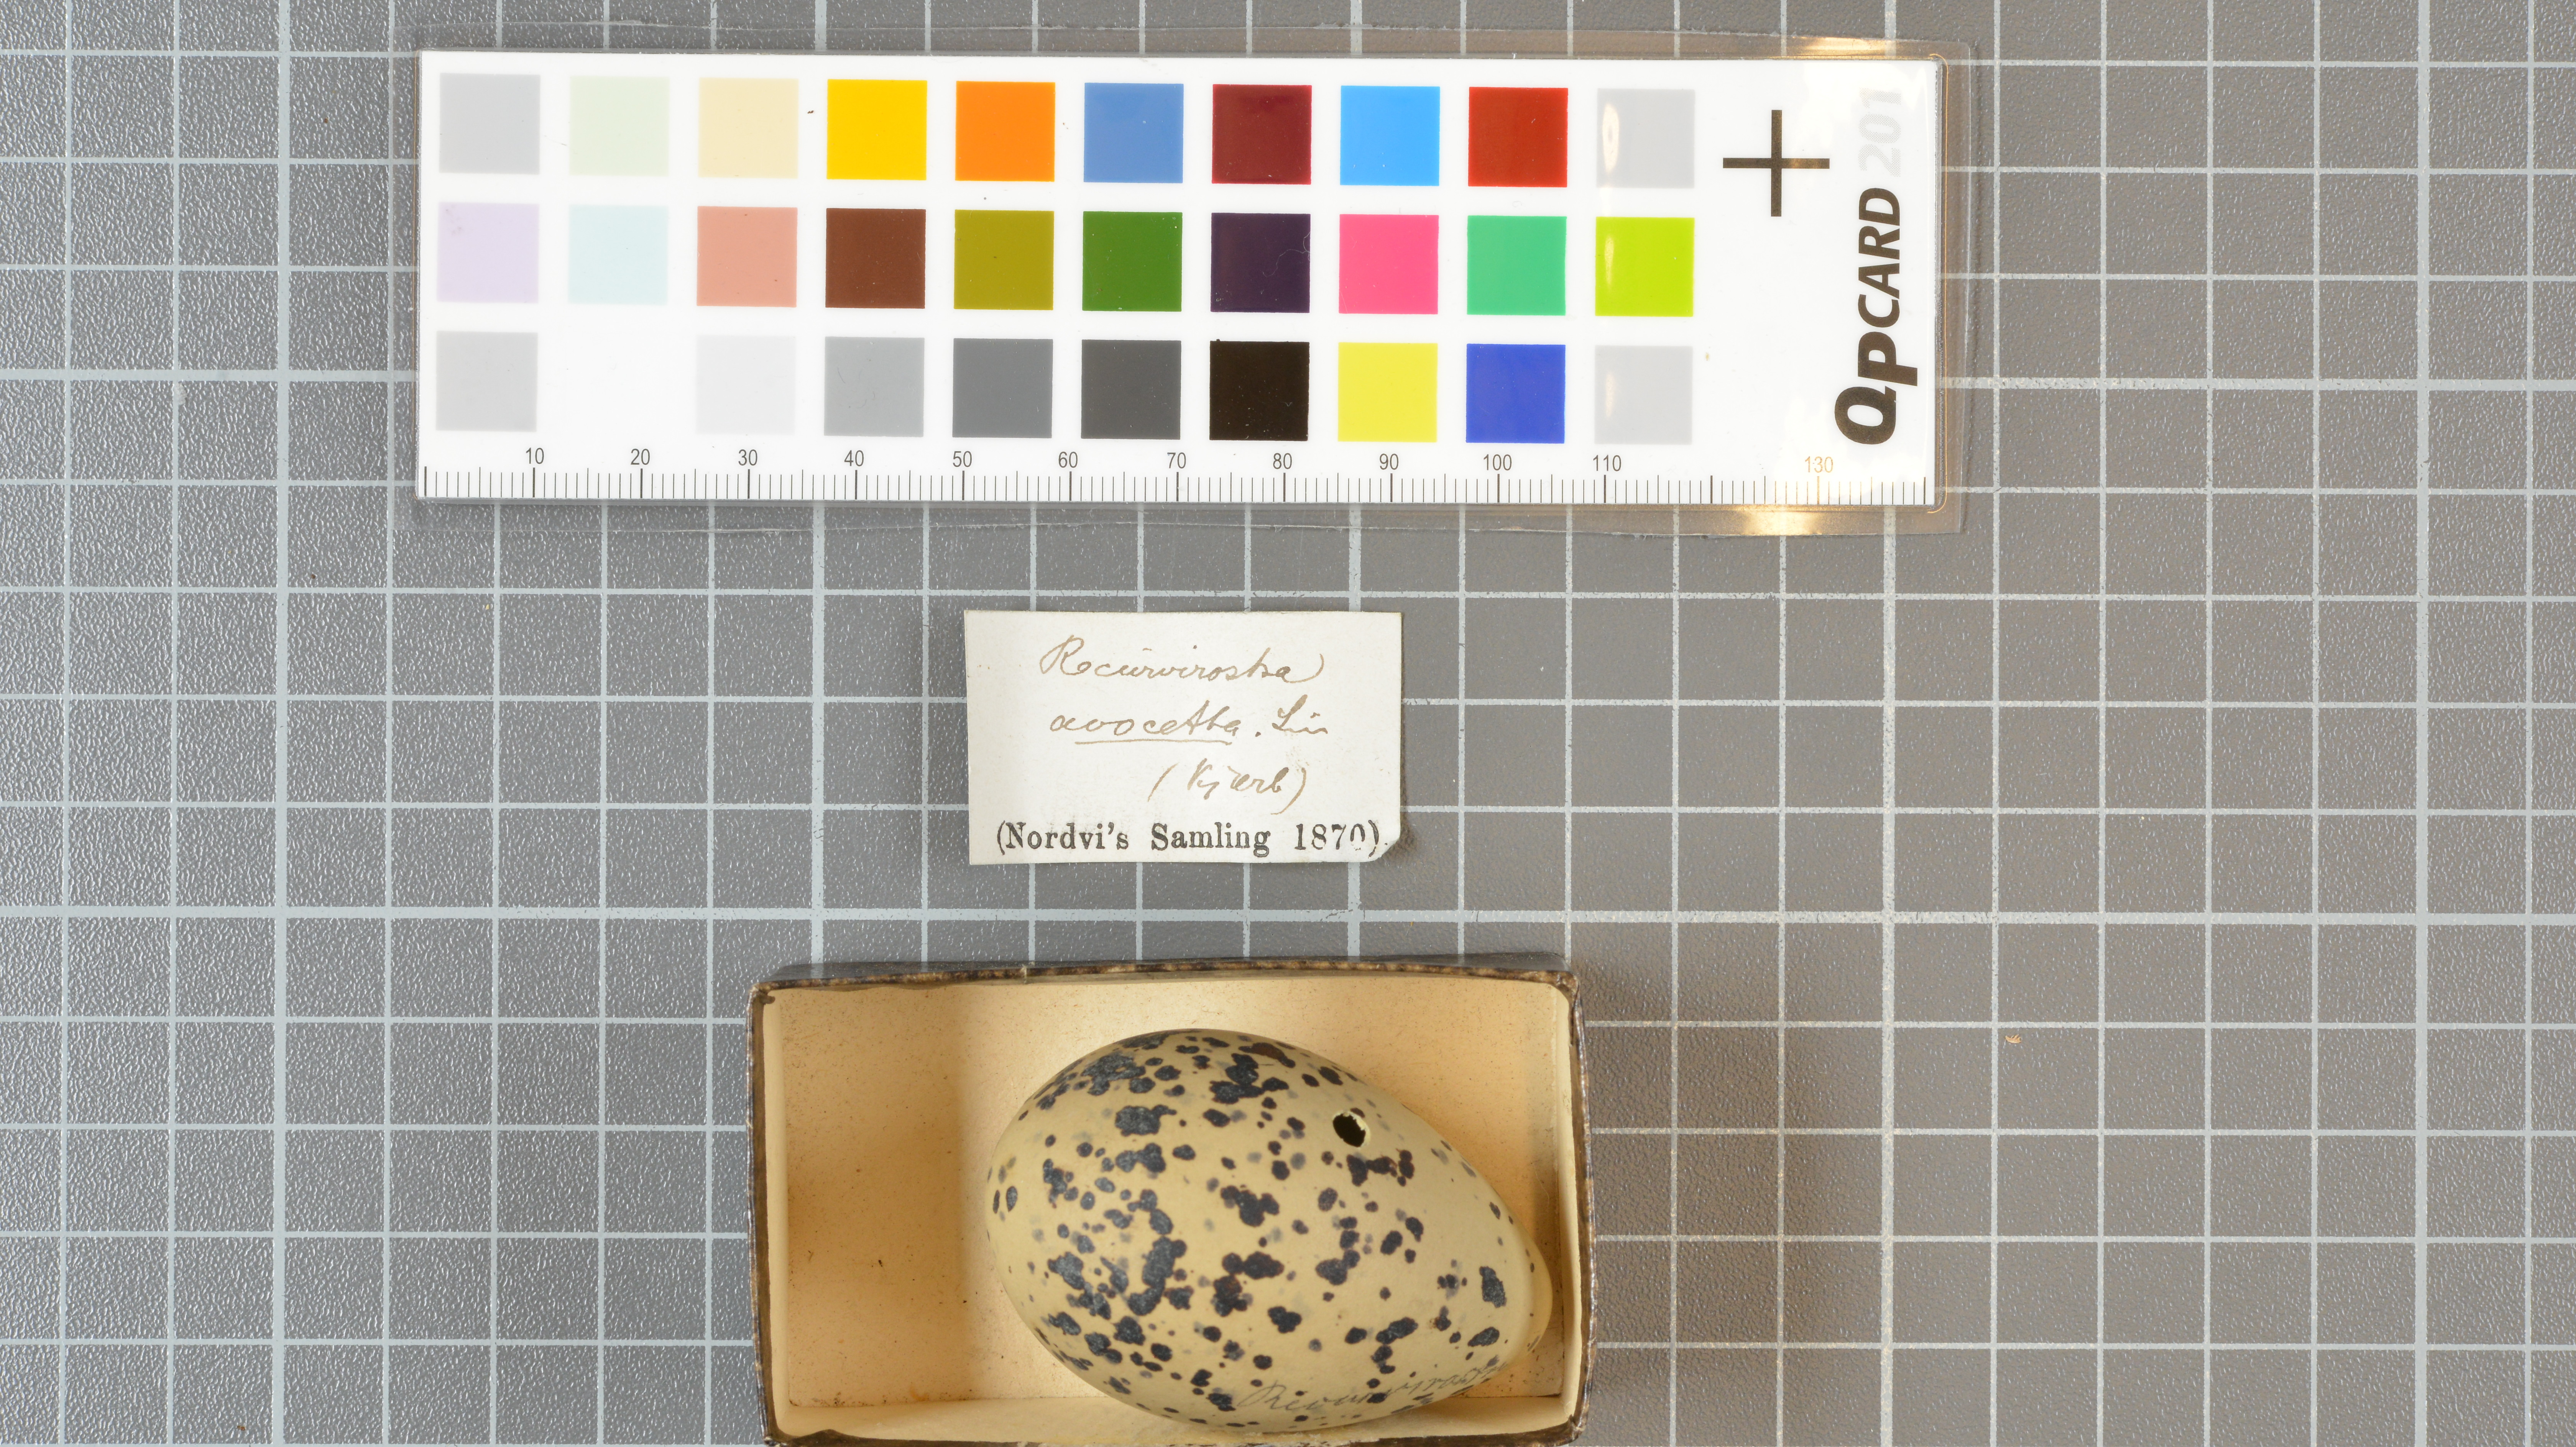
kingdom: Animalia
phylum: Chordata
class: Aves
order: Charadriiformes
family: Recurvirostridae
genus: Recurvirostra
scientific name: Recurvirostra avosetta
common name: Pied avocet
